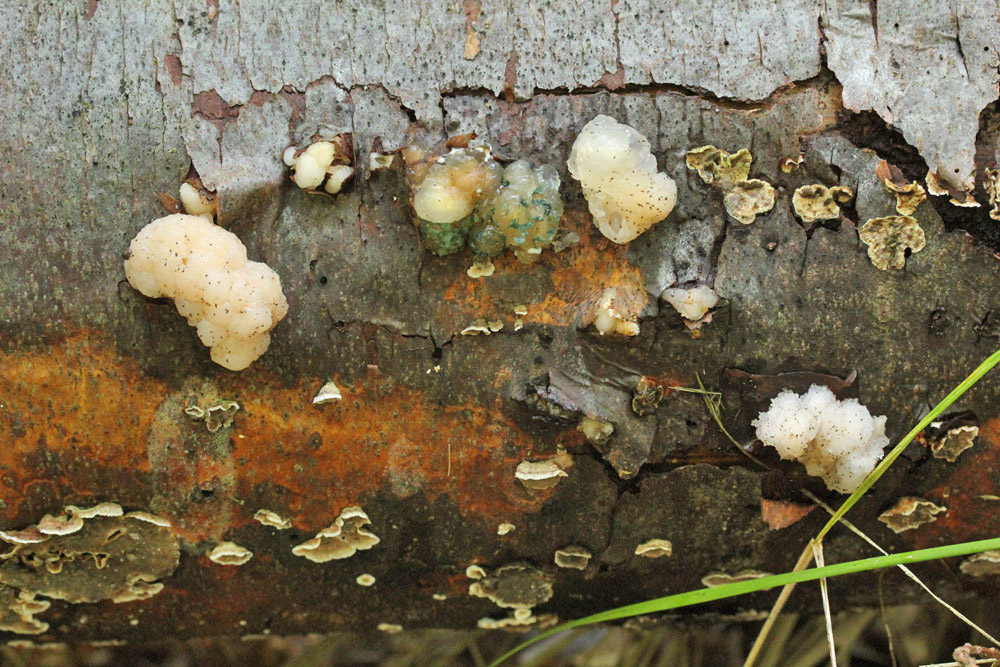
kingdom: Fungi
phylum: Basidiomycota
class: Agaricomycetes
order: Russulales
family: Stereaceae
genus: Stereum
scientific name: Stereum sanguinolentum
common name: blødende lædersvamp
